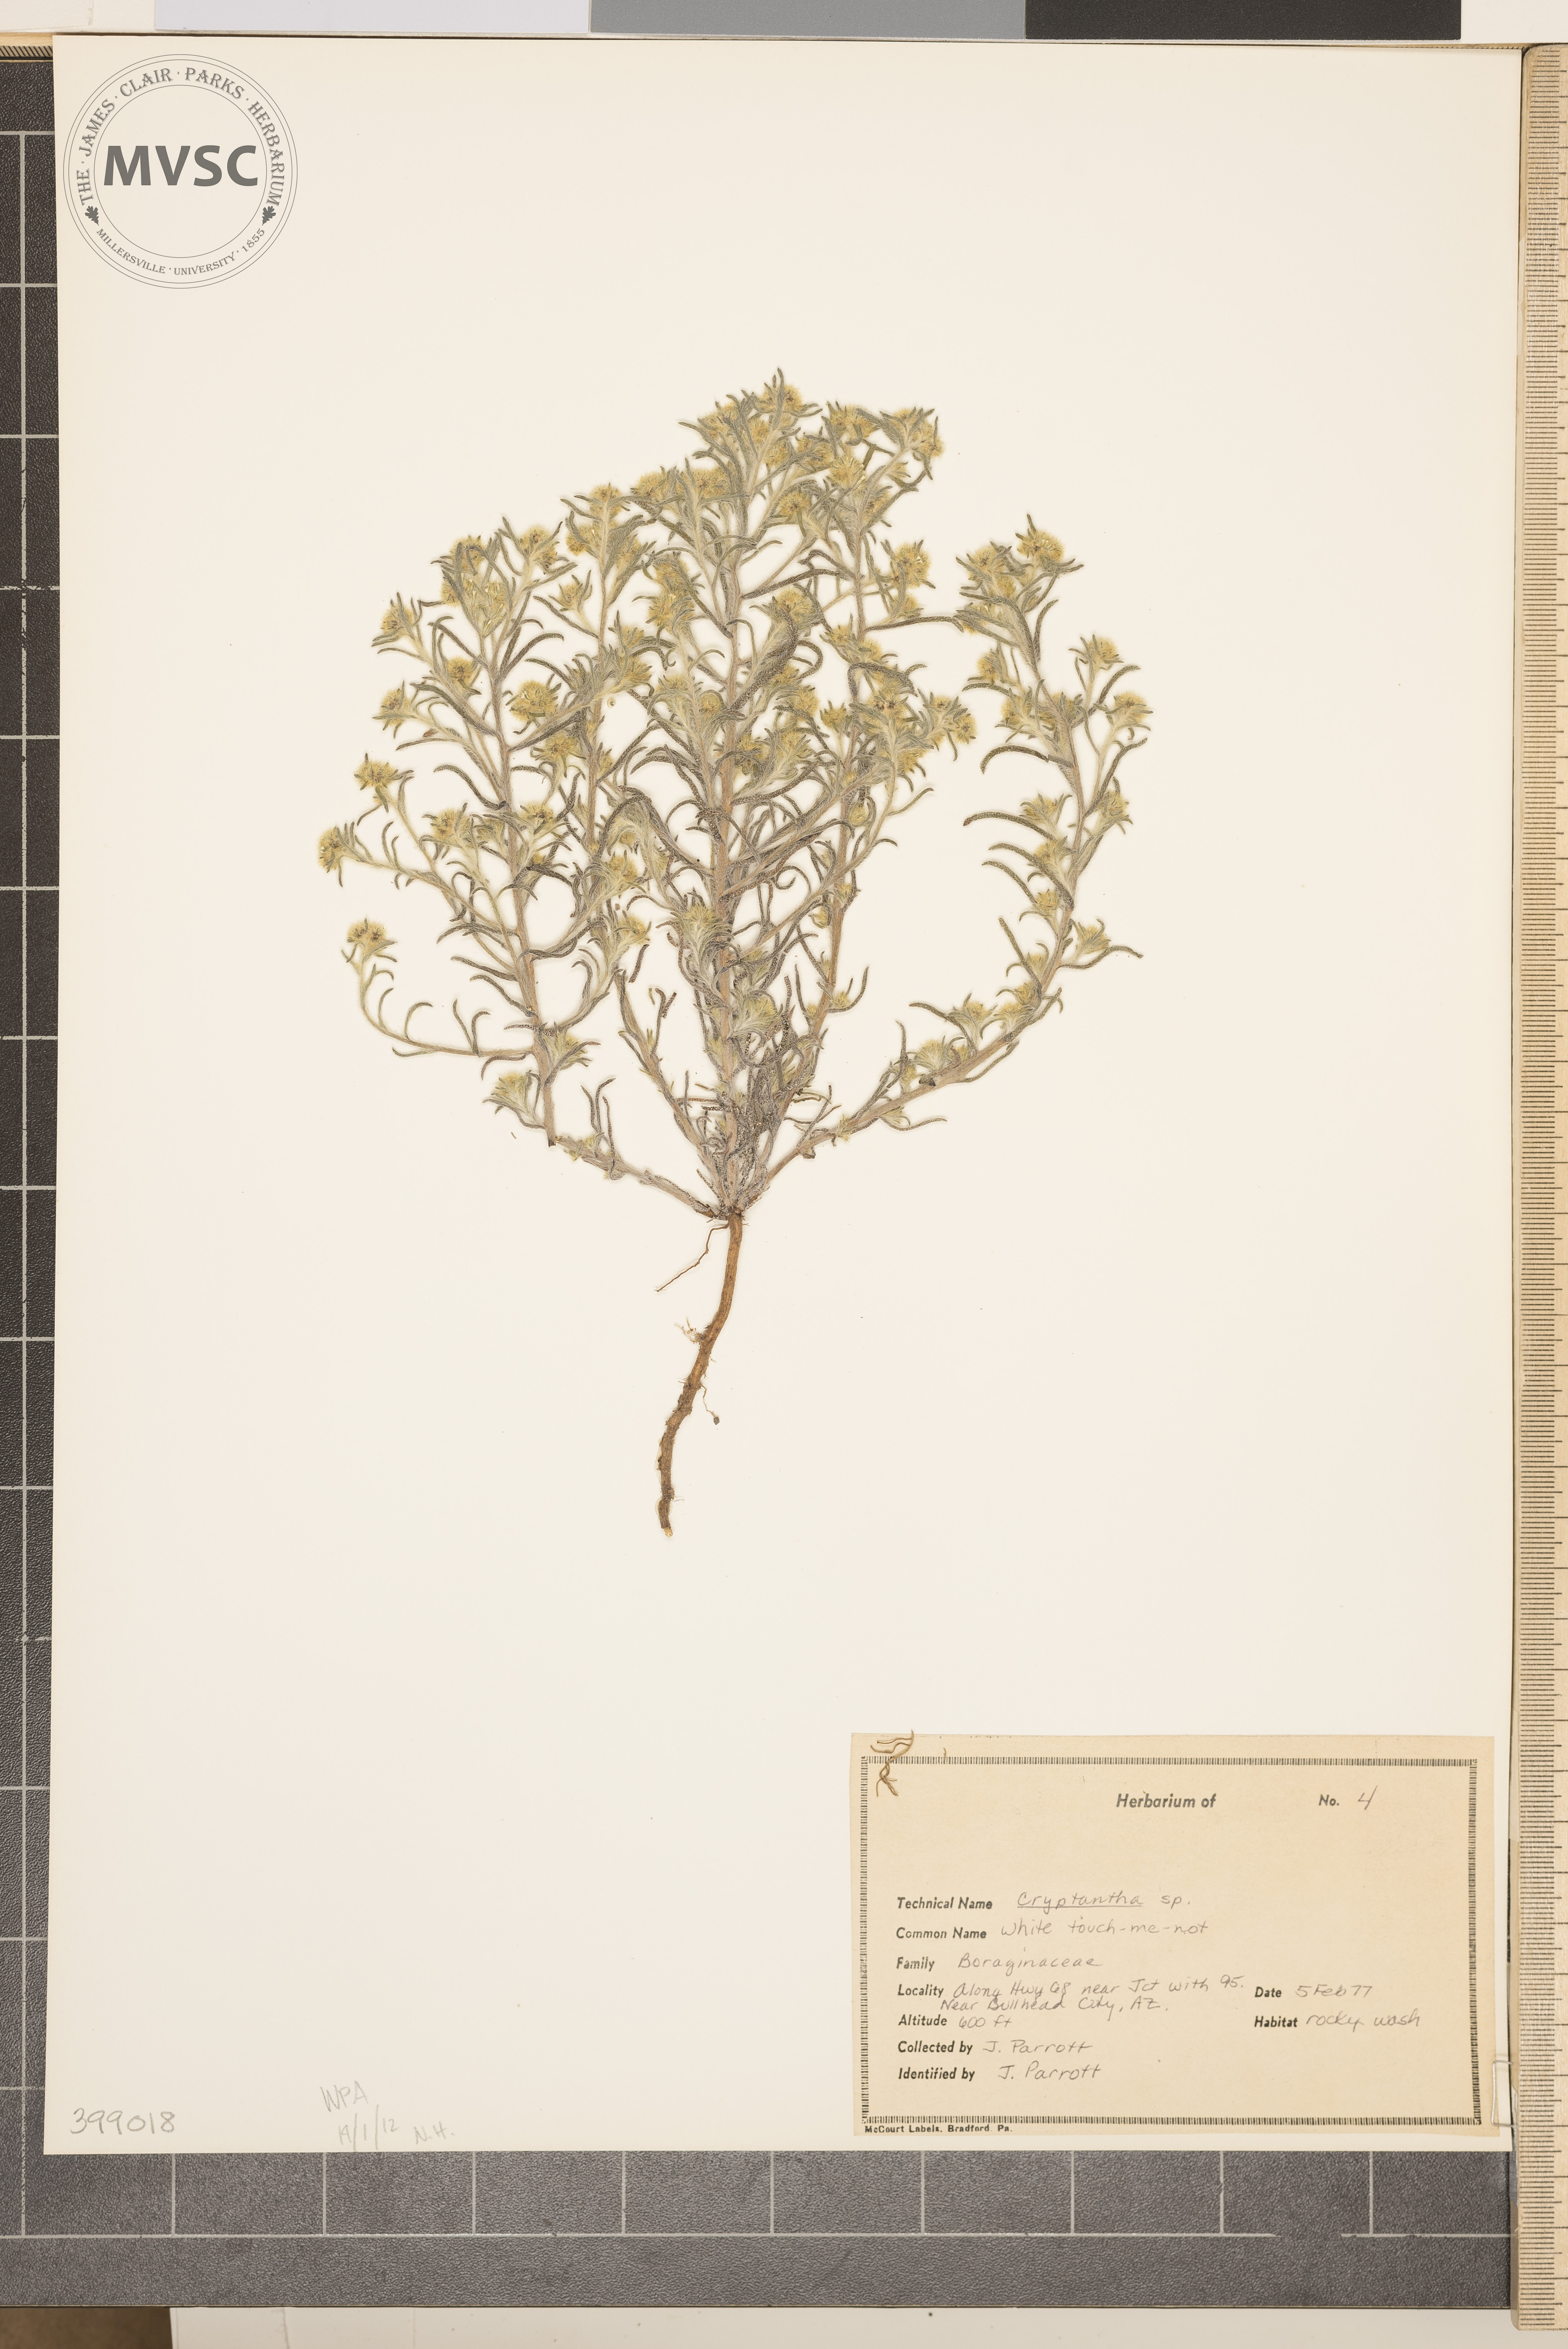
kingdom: Plantae
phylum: Tracheophyta
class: Magnoliopsida
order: Boraginales
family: Boraginaceae
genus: Cryptantha
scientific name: Cryptantha
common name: Grass
